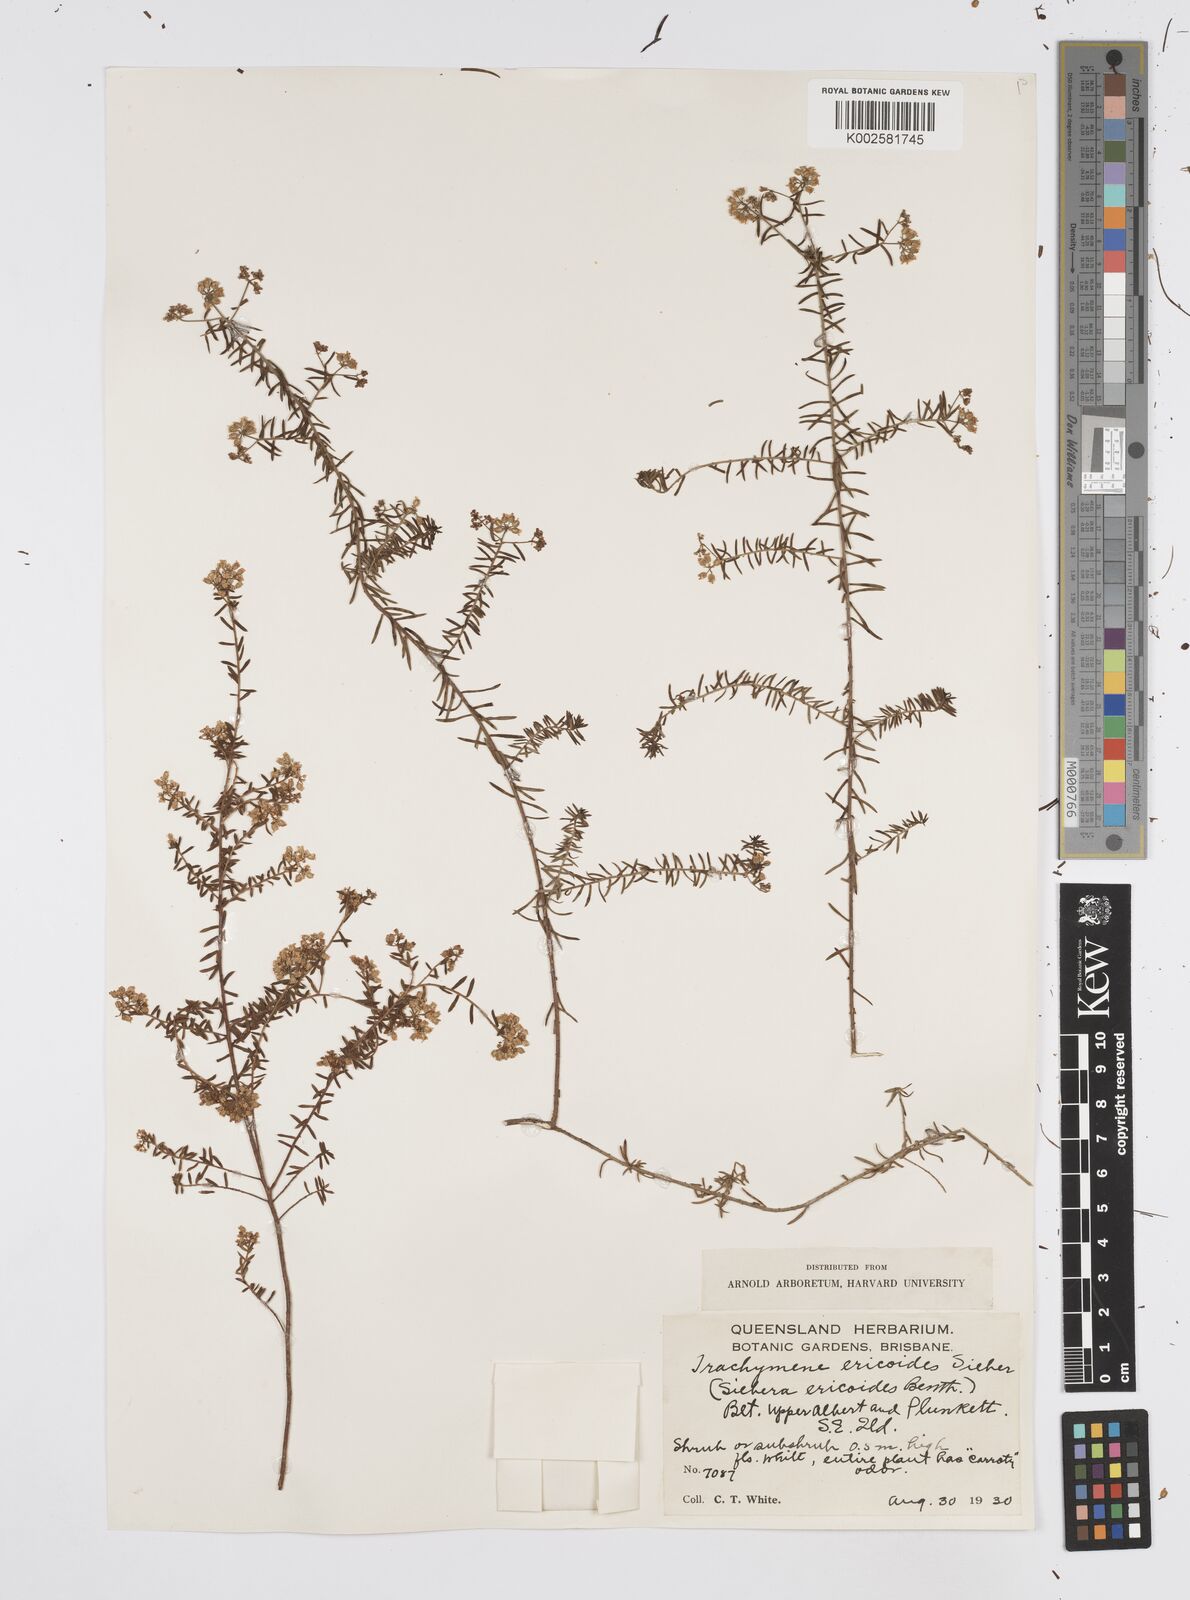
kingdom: Plantae
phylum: Tracheophyta
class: Magnoliopsida
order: Apiales
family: Apiaceae
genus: Platysace
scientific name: Platysace ericoides
